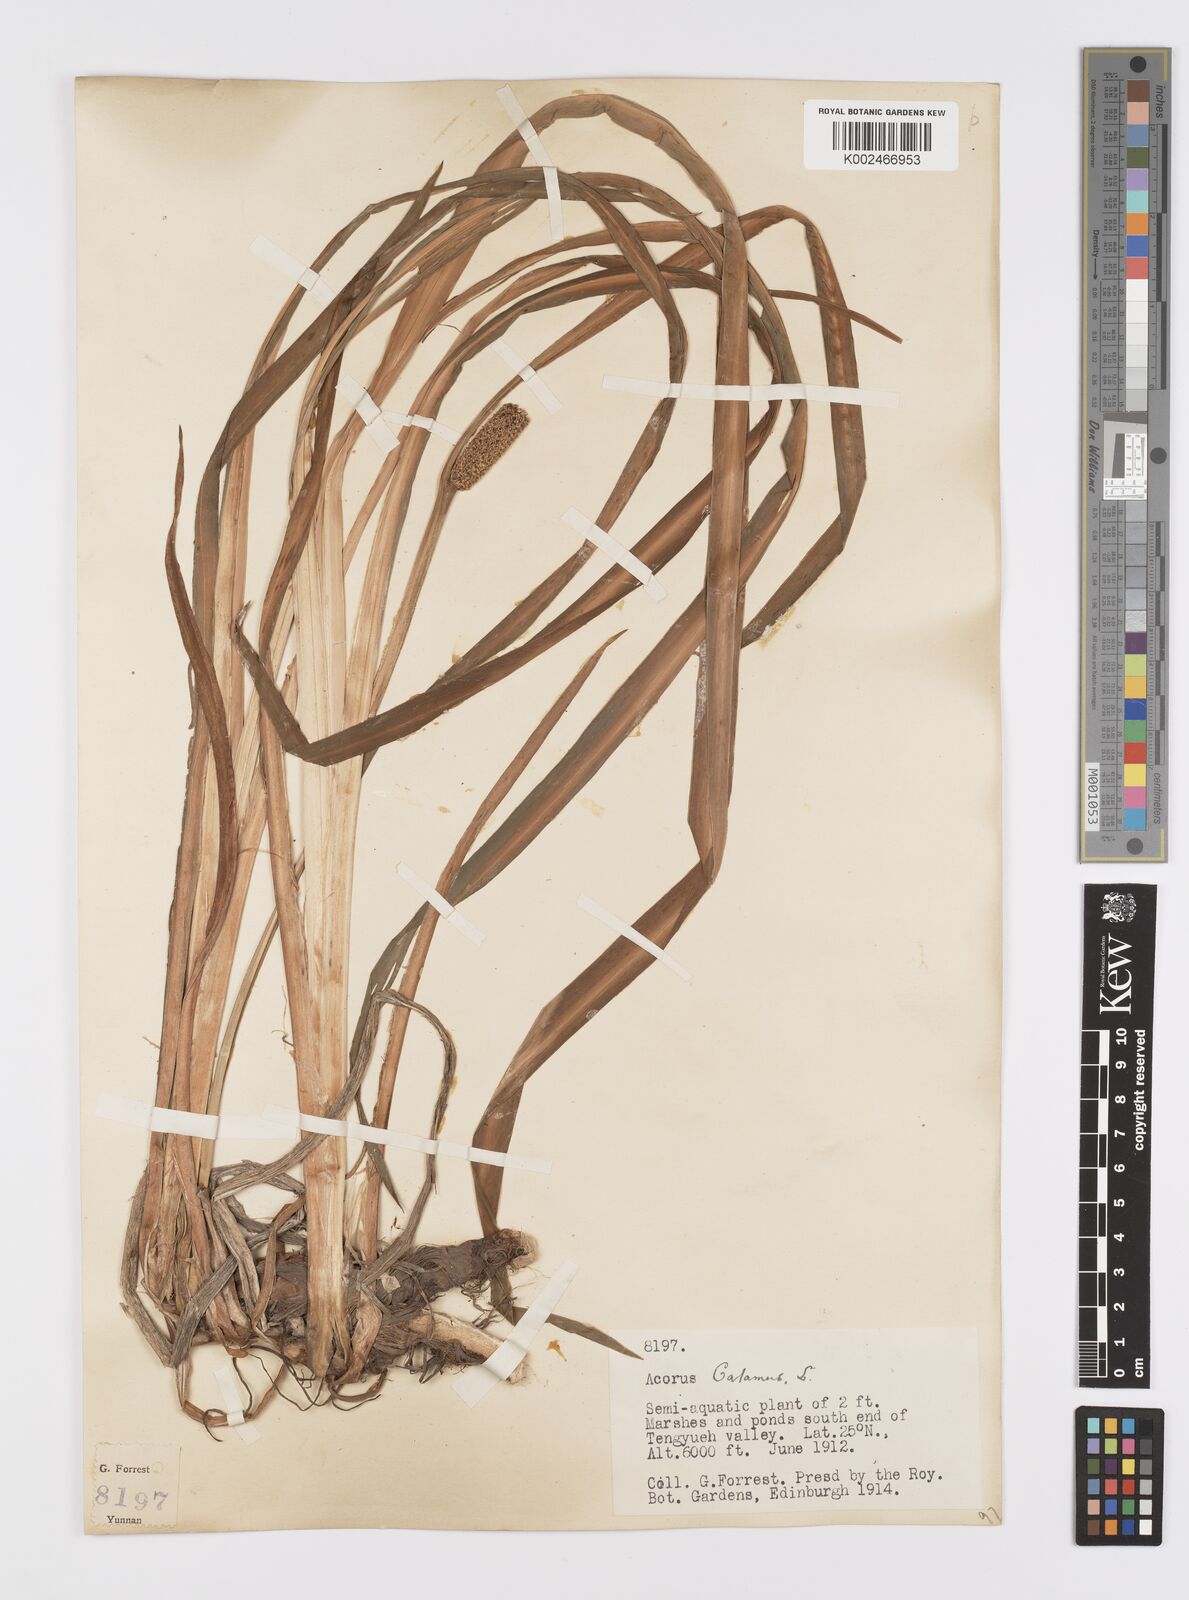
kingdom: Plantae
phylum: Tracheophyta
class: Liliopsida
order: Acorales
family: Acoraceae
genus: Acorus
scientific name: Acorus calamus
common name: Sweet-flag
